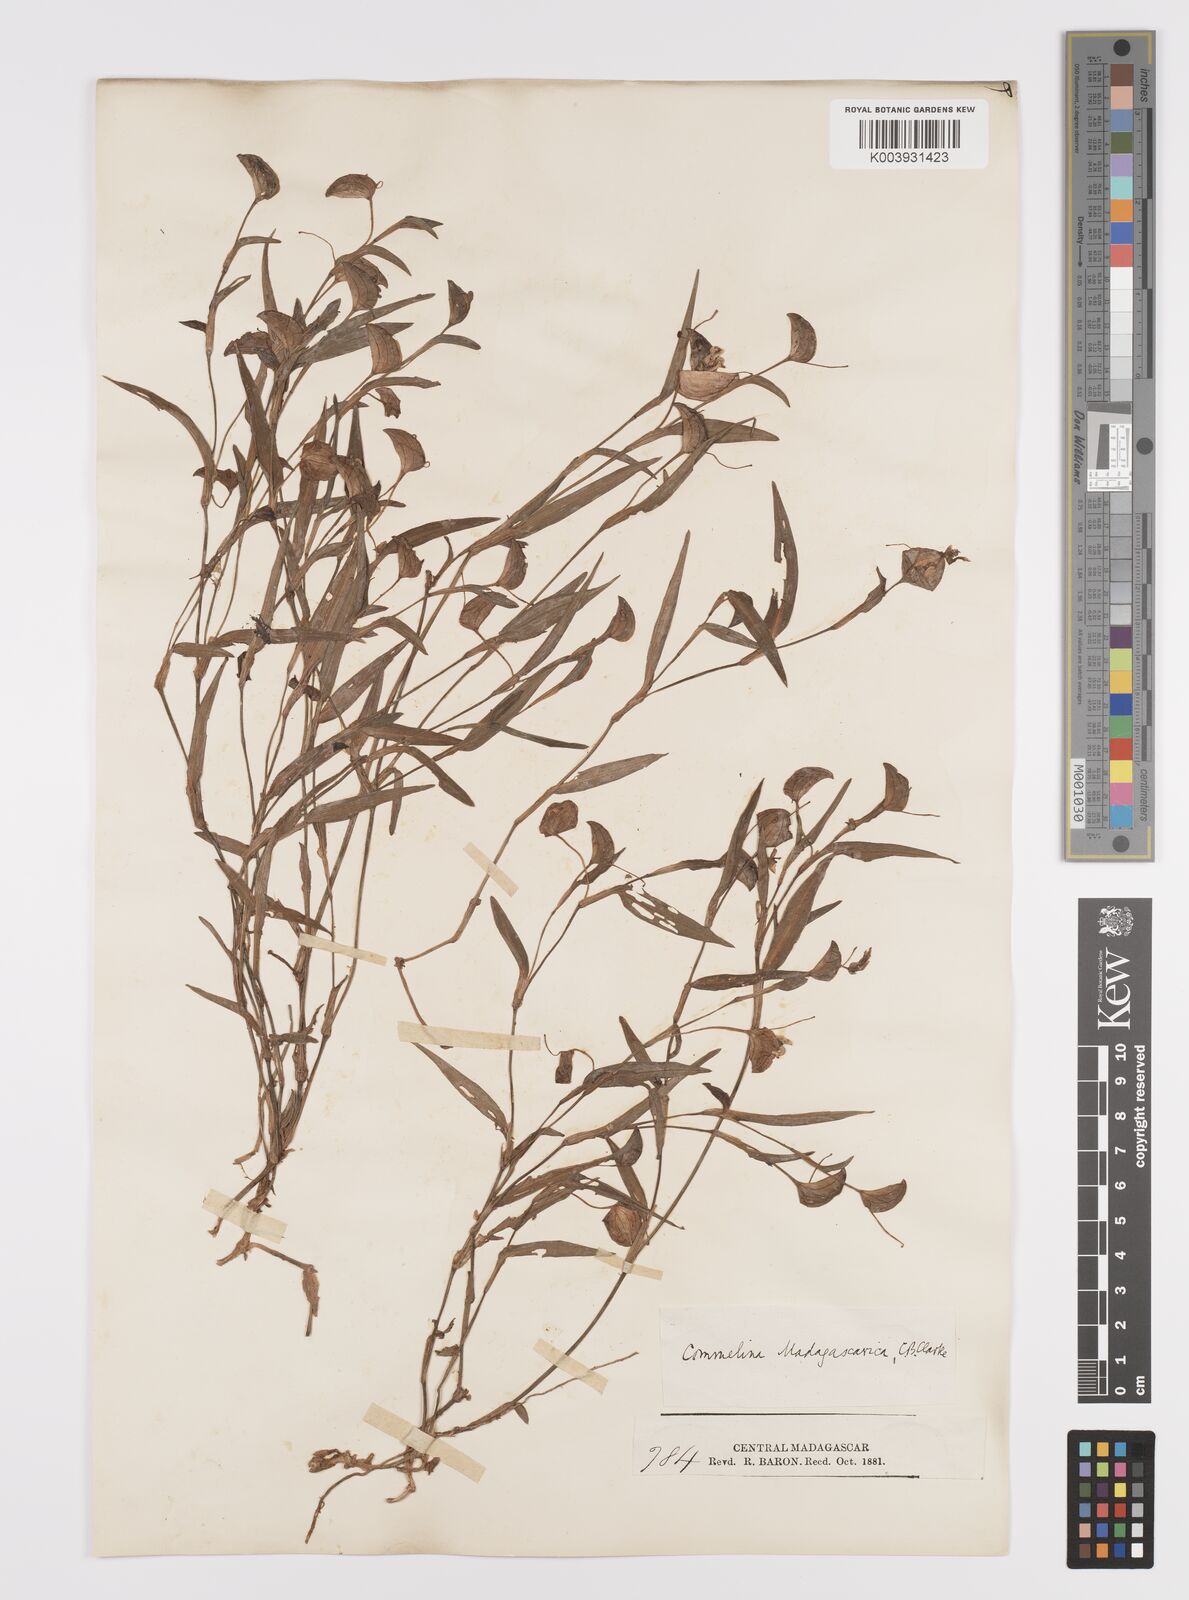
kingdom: Plantae
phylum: Tracheophyta
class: Liliopsida
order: Commelinales
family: Commelinaceae
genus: Commelina
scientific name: Commelina madagascarica
